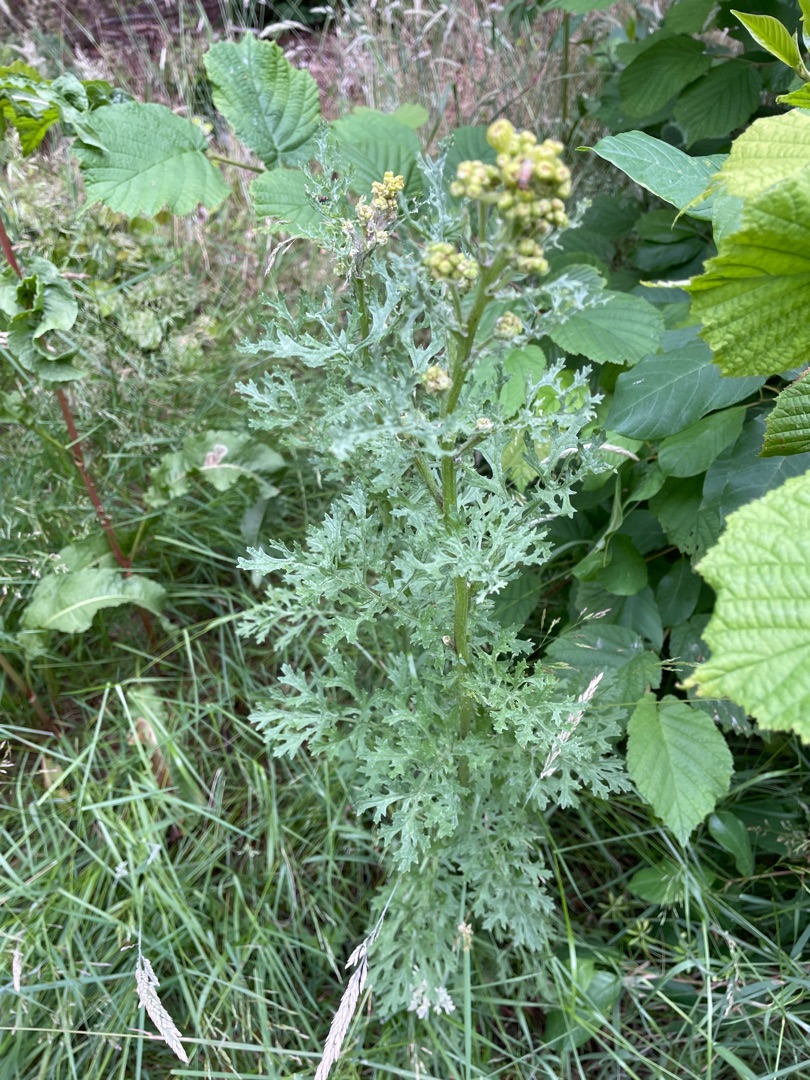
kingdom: Plantae
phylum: Tracheophyta
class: Magnoliopsida
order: Asterales
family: Asteraceae
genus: Jacobaea
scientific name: Jacobaea vulgaris
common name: Eng-brandbæger
